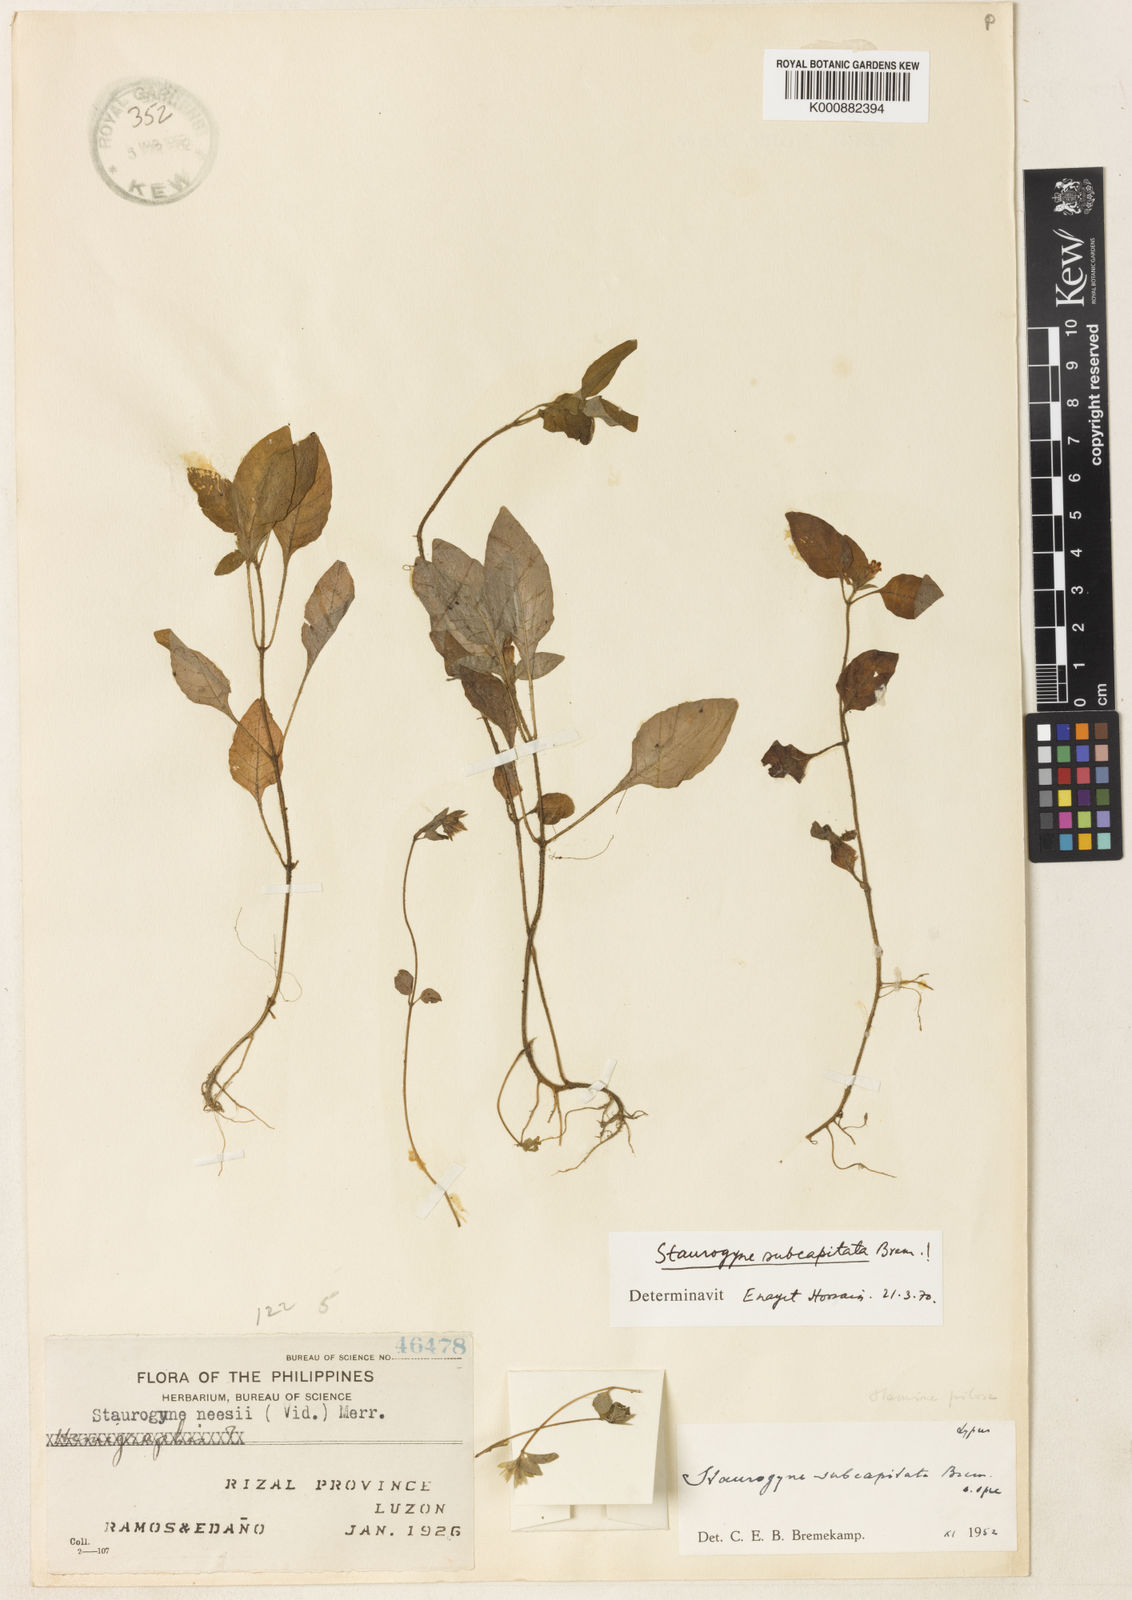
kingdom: Plantae
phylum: Tracheophyta
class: Magnoliopsida
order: Lamiales
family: Acanthaceae
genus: Staurogyne
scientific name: Staurogyne subcapitata
